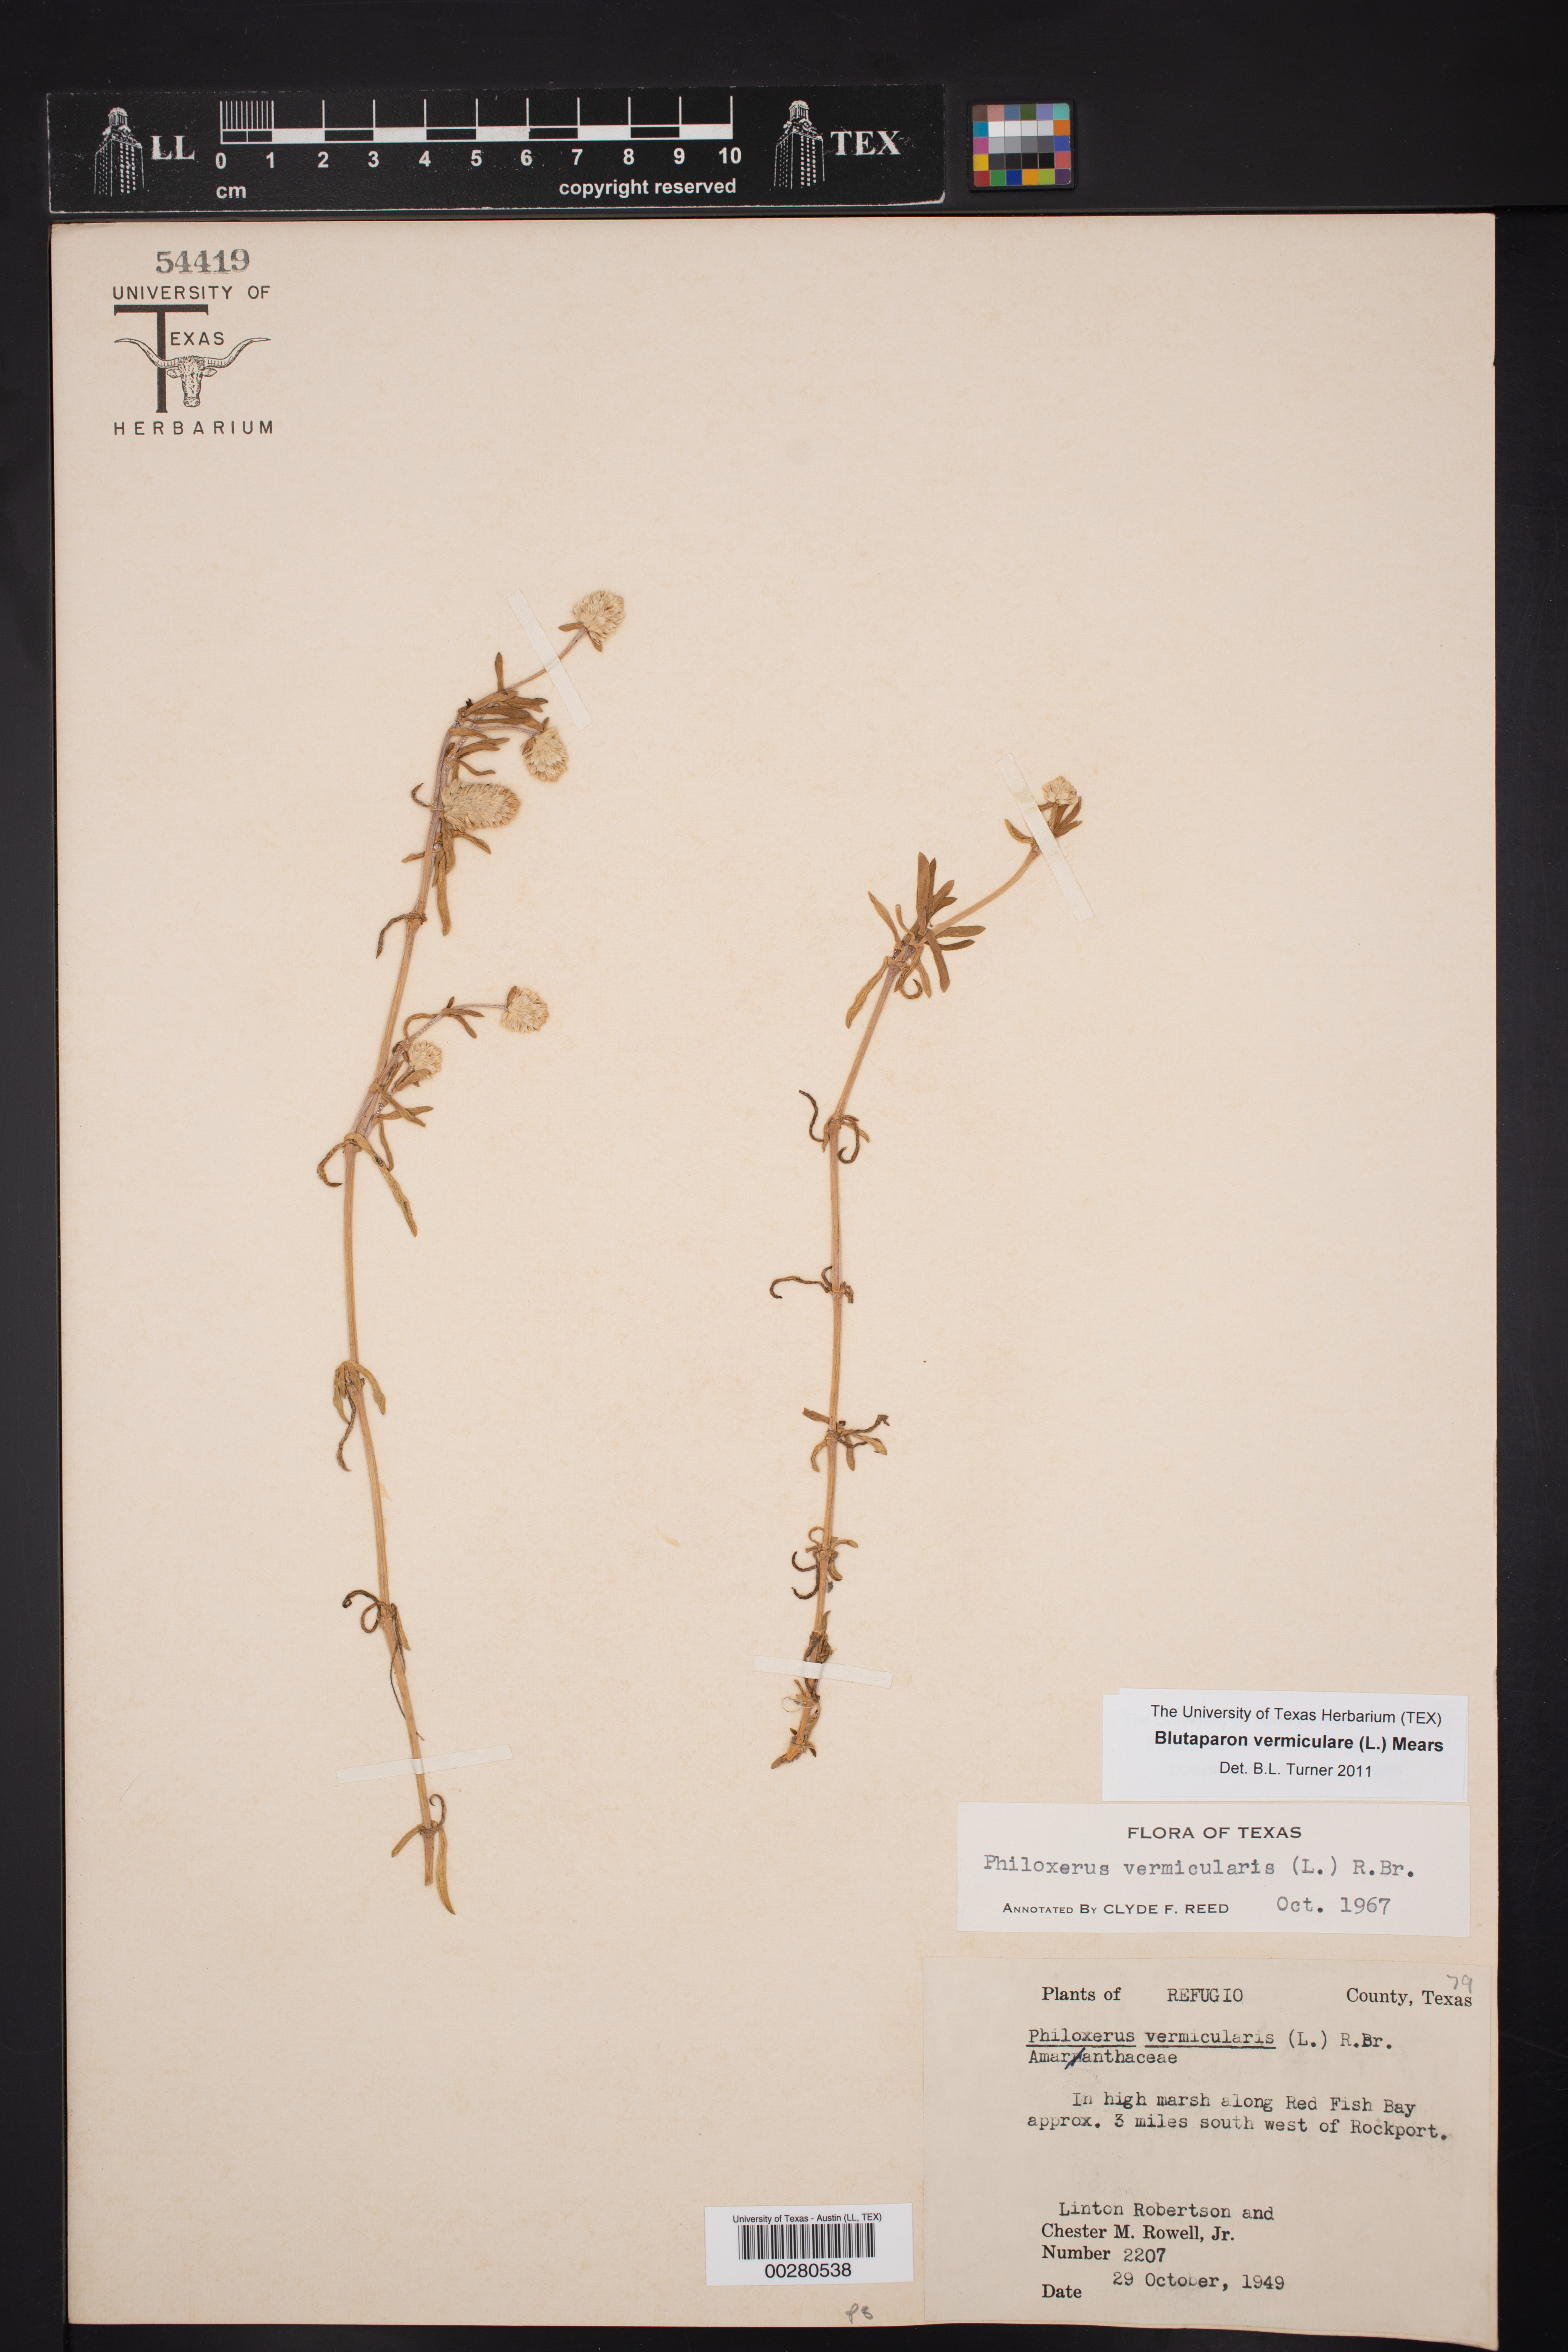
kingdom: Plantae
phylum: Tracheophyta
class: Magnoliopsida
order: Caryophyllales
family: Amaranthaceae
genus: Gomphrena
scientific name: Gomphrena vermicularis
